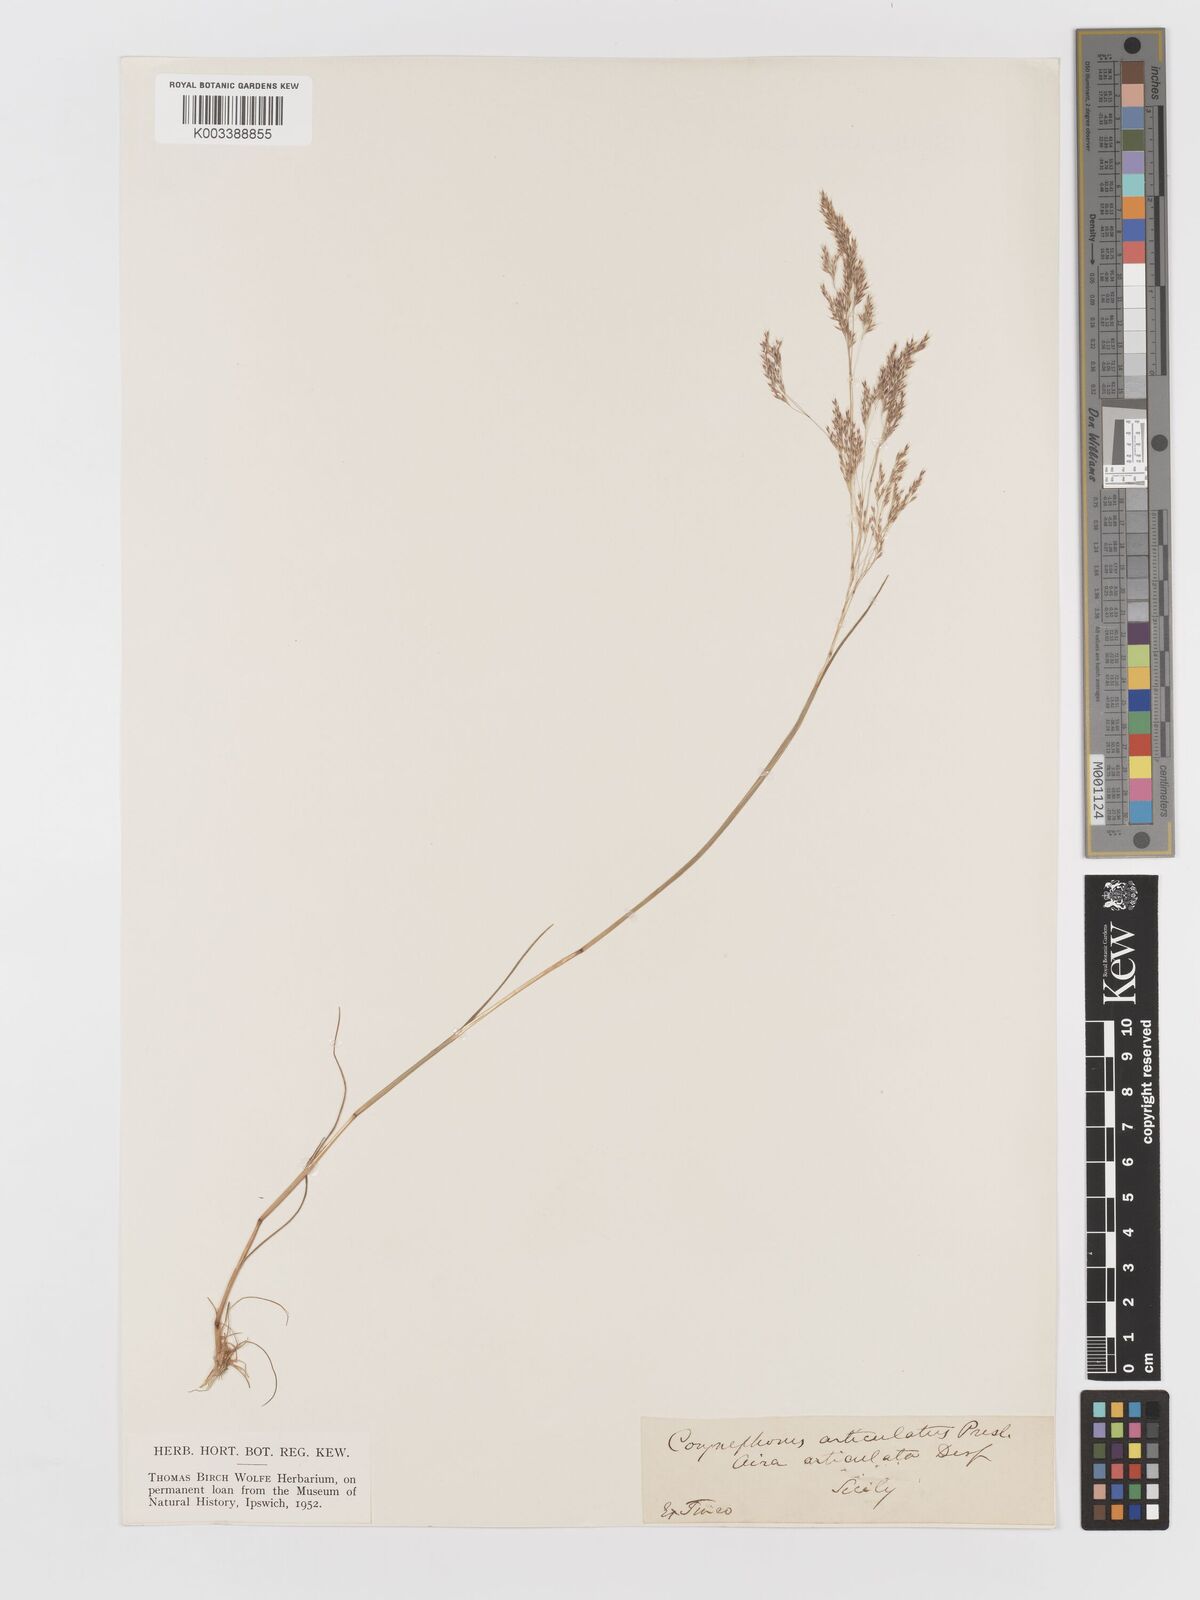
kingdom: Plantae
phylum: Tracheophyta
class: Liliopsida
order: Poales
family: Poaceae
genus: Corynephorus
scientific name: Corynephorus divaricatus
